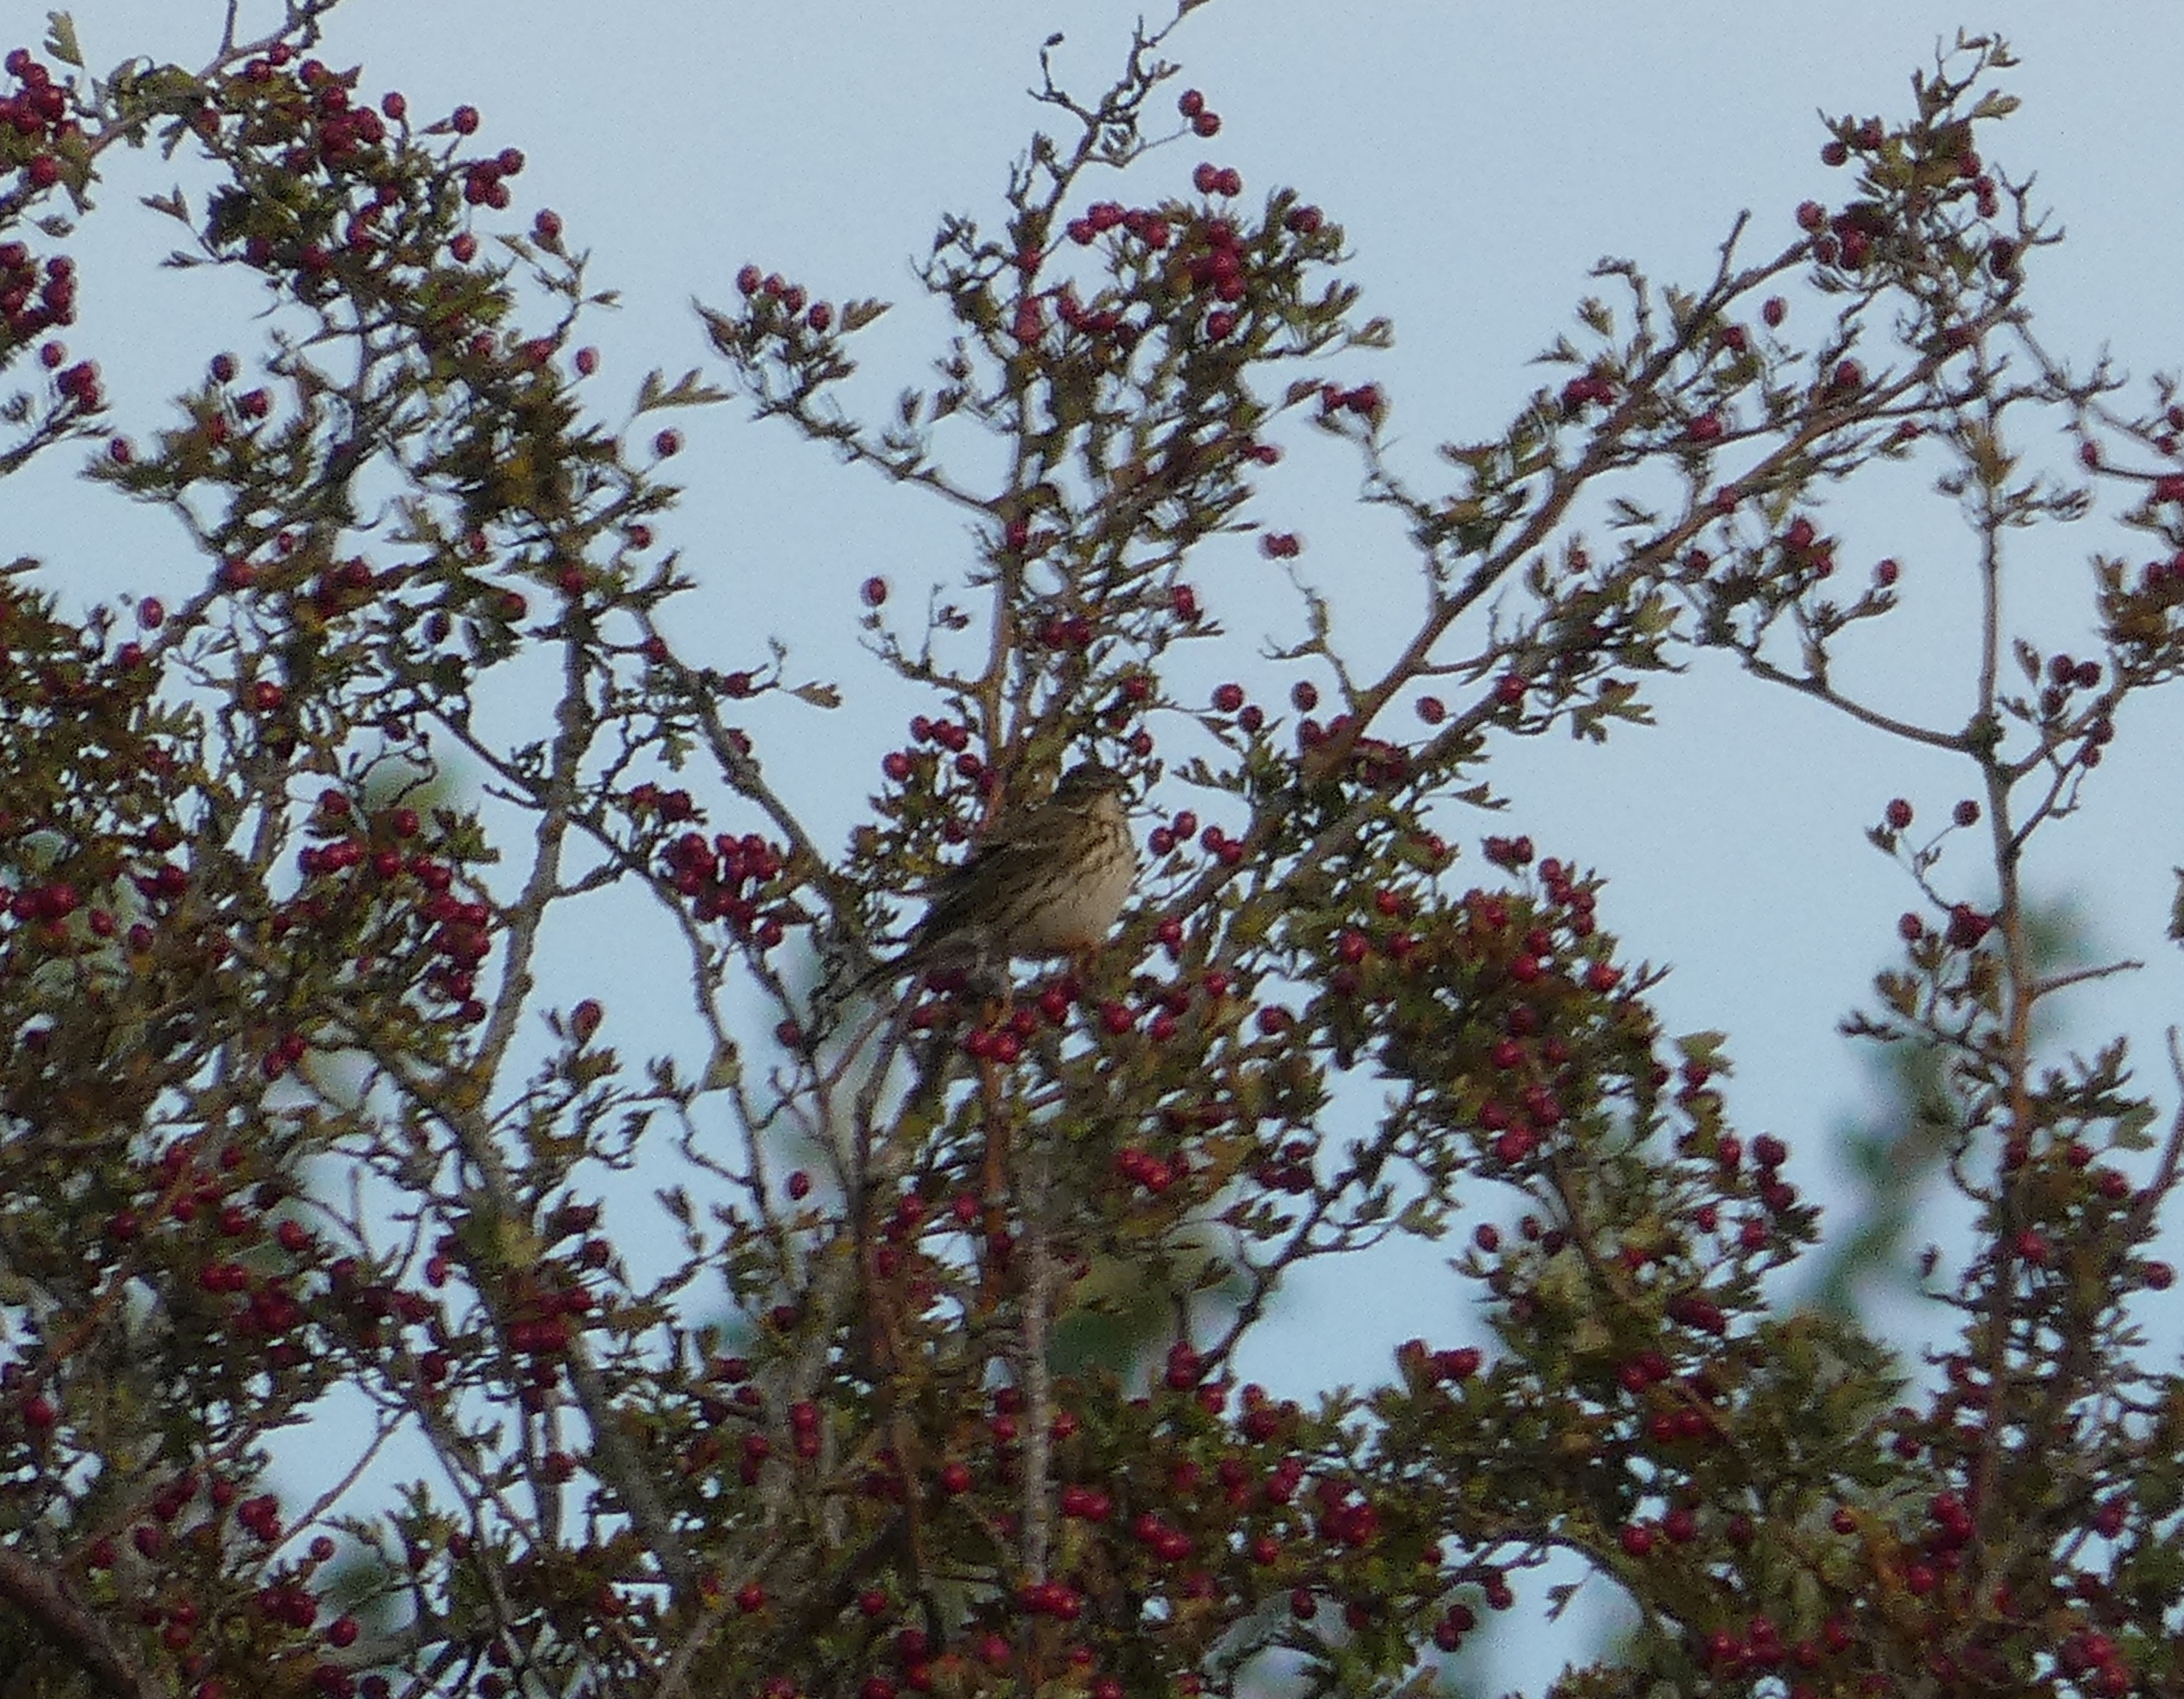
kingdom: Animalia
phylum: Chordata
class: Aves
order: Passeriformes
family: Motacillidae
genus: Anthus
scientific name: Anthus pratensis
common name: Engpiber
